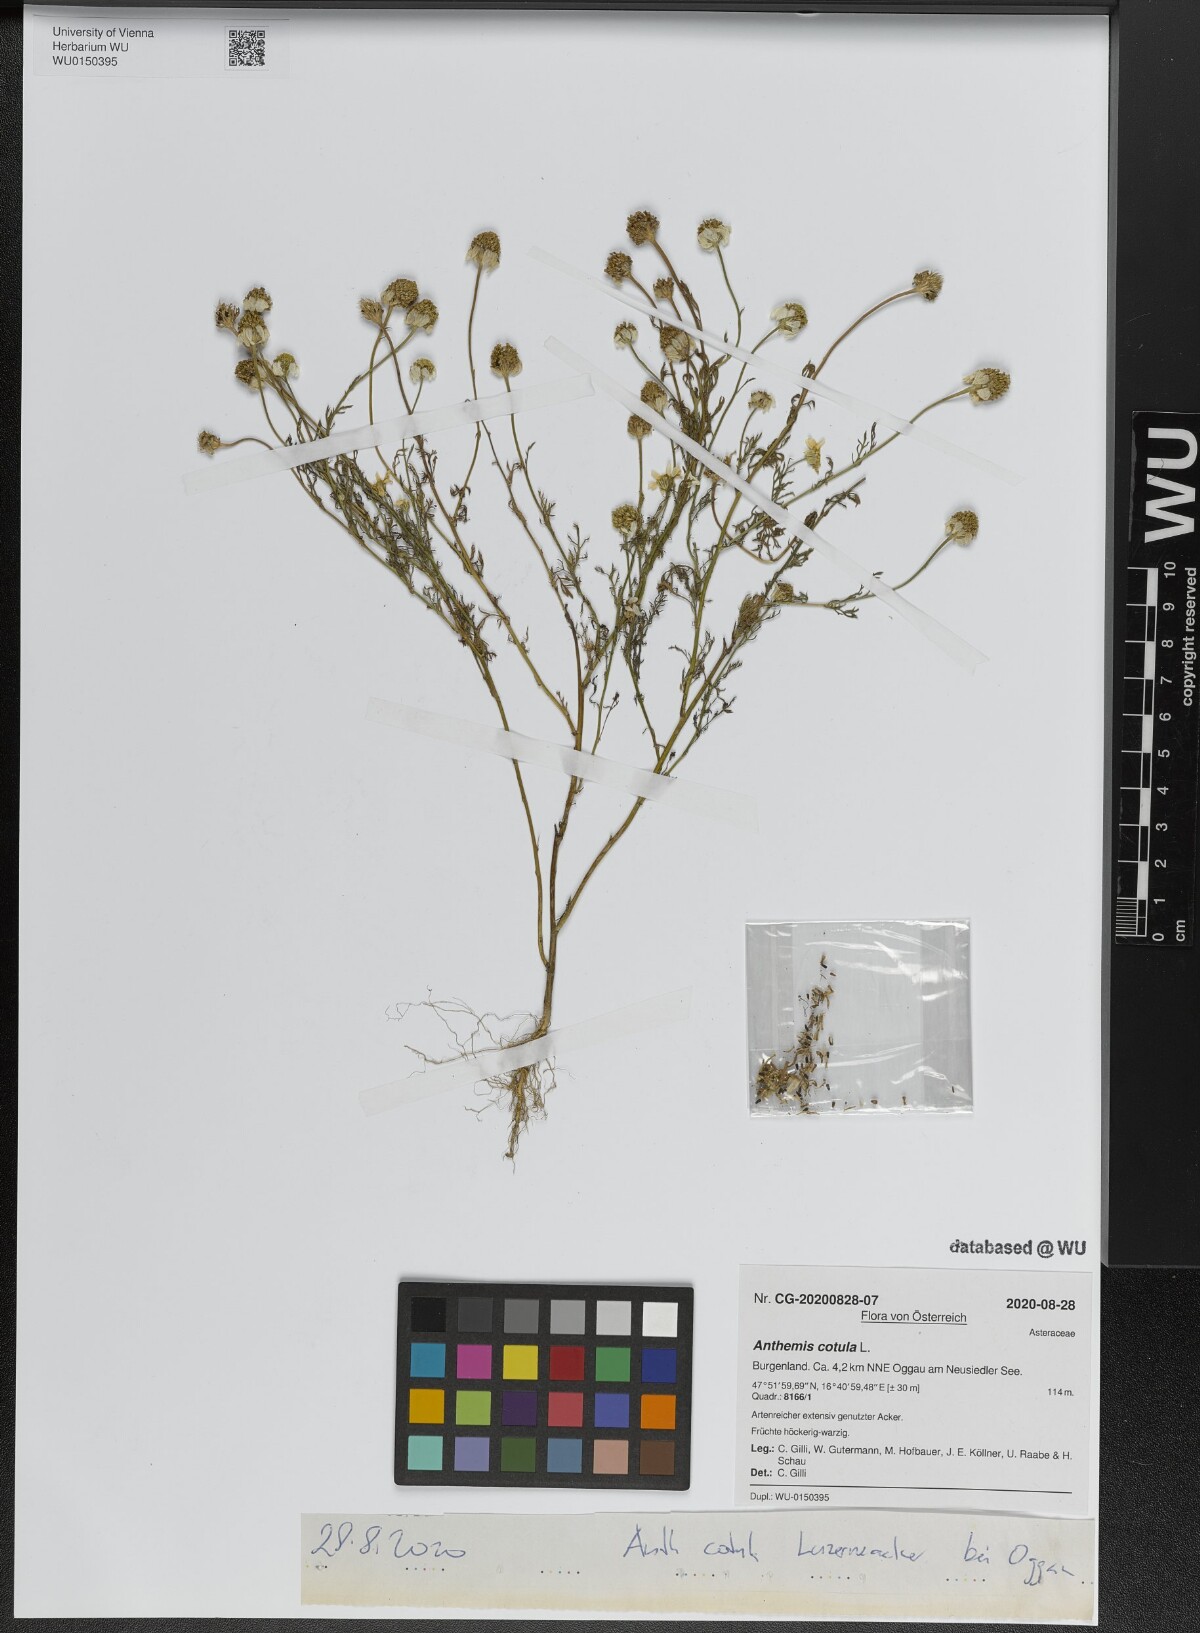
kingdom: Plantae
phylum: Tracheophyta
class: Magnoliopsida
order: Asterales
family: Asteraceae
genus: Anthemis
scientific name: Anthemis cotula
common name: Stinking chamomile
